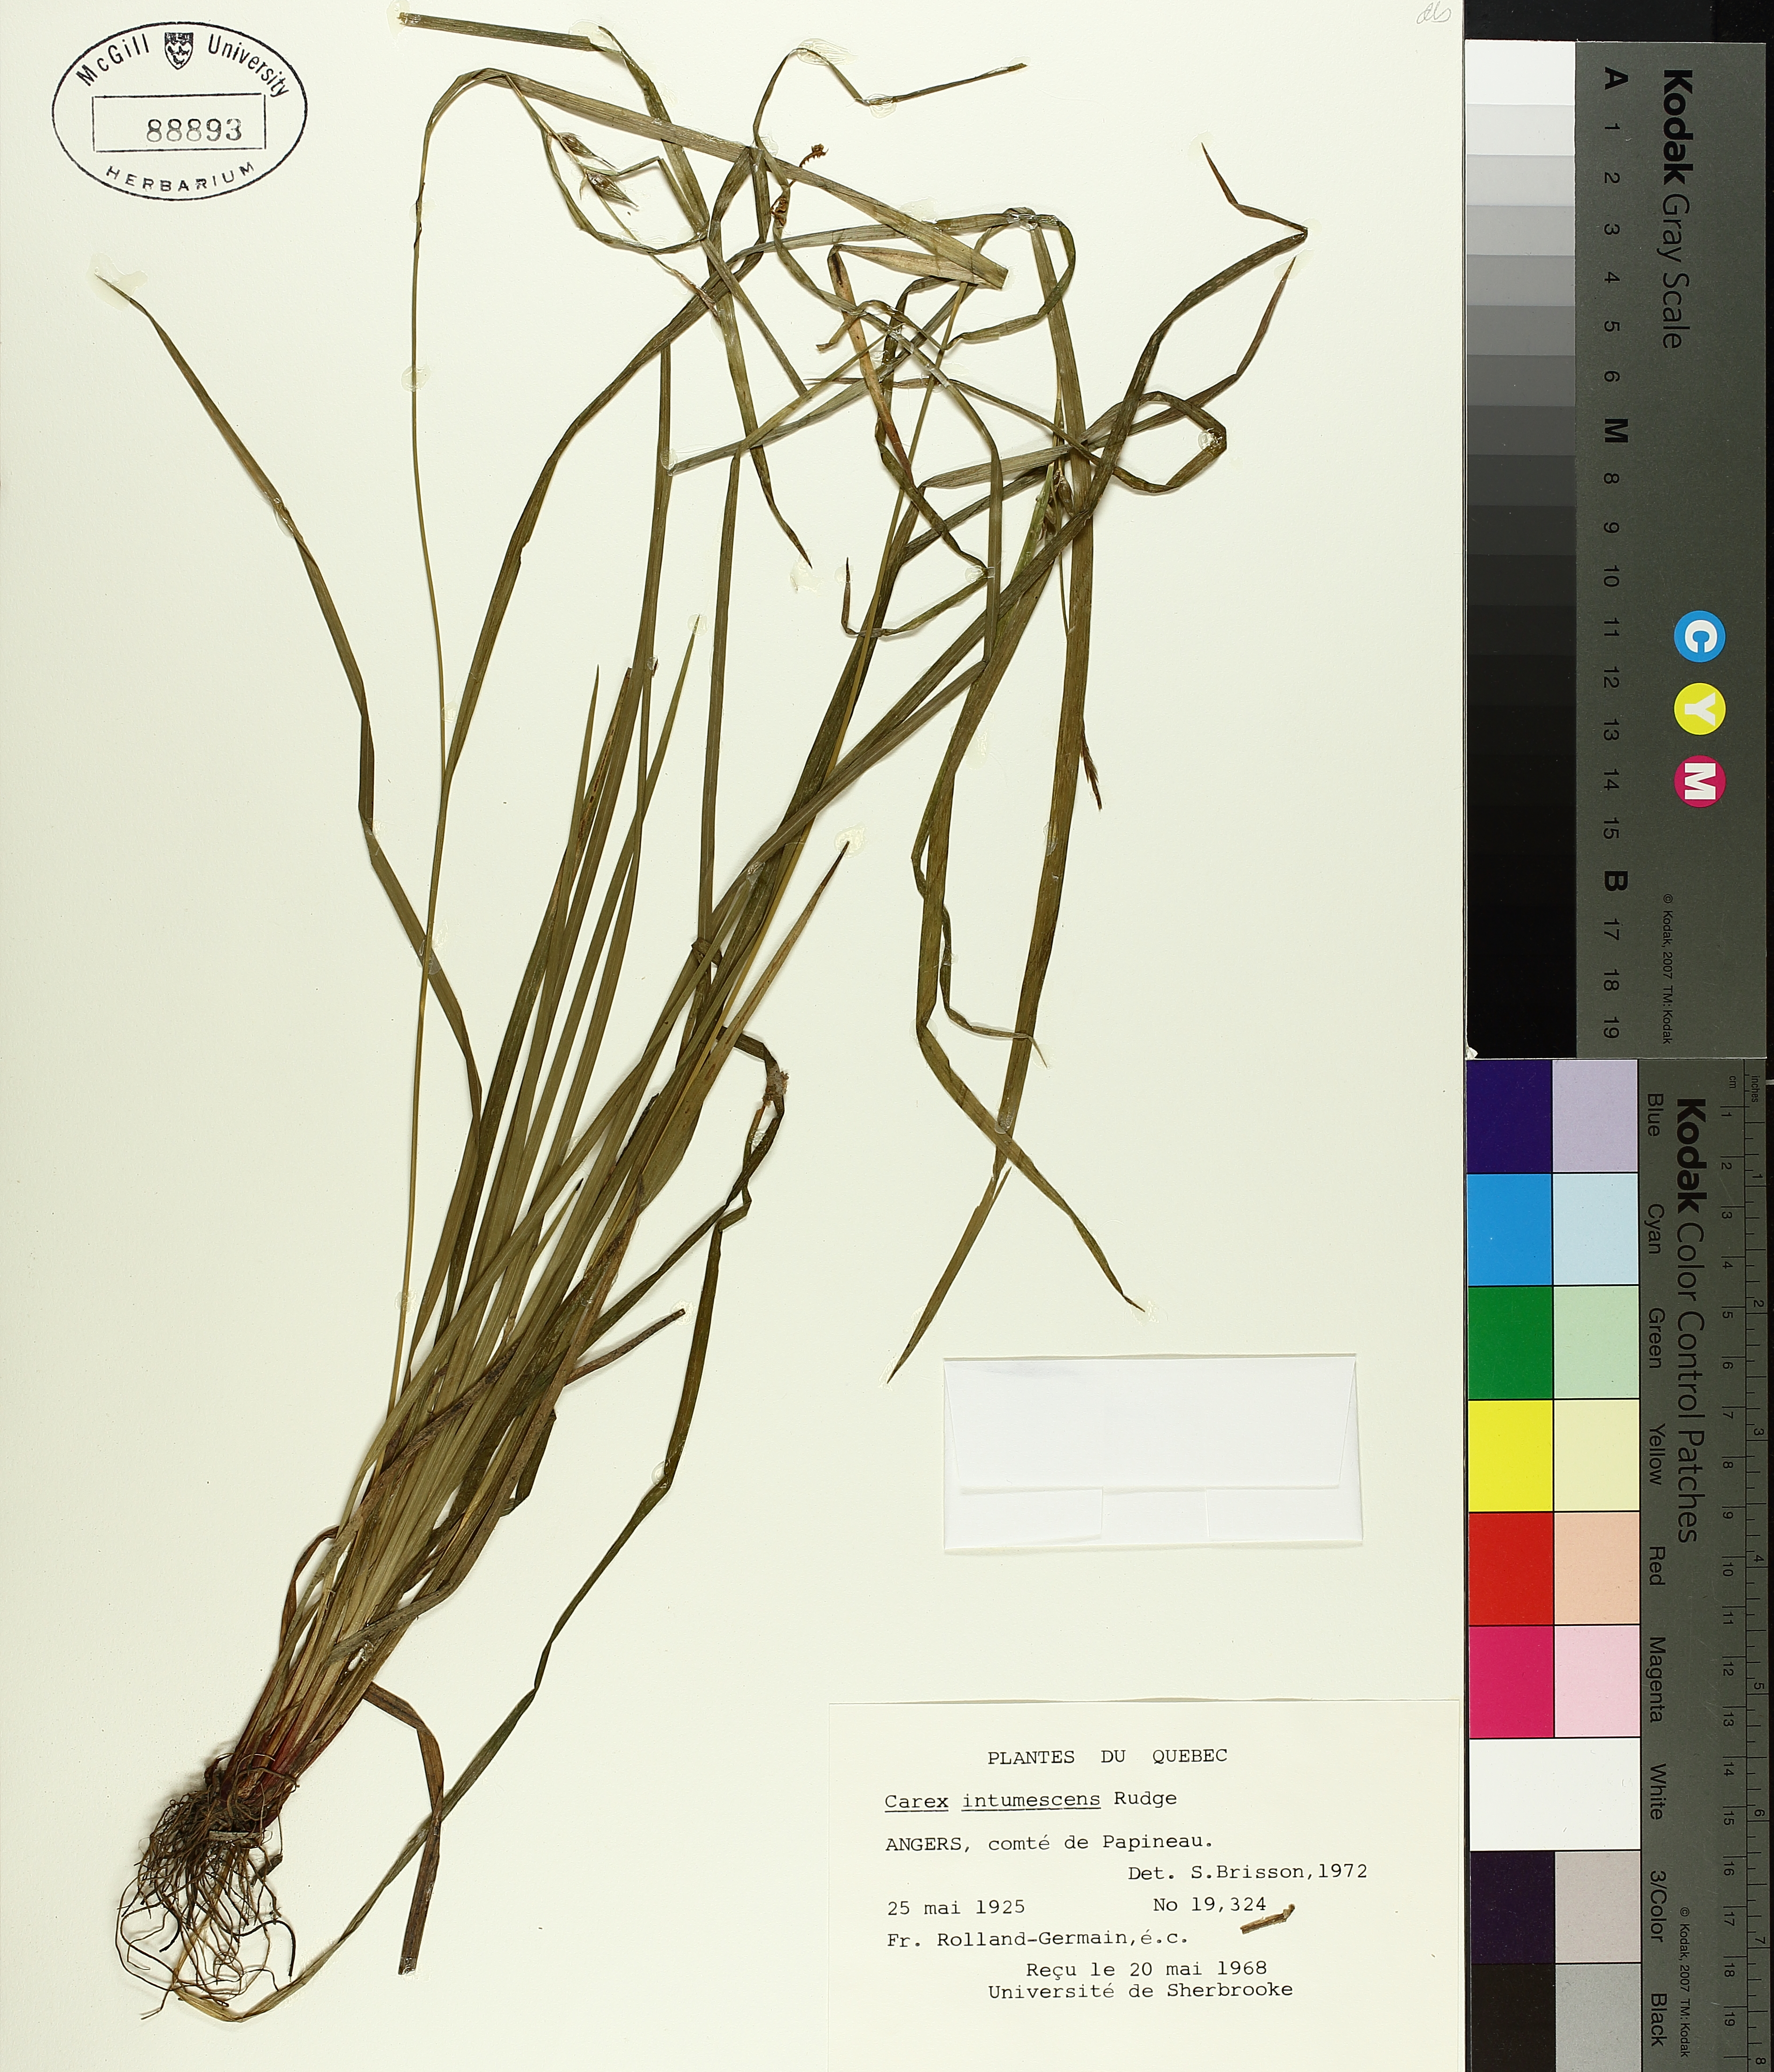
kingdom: Plantae
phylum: Tracheophyta
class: Liliopsida
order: Poales
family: Cyperaceae
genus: Carex
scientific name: Carex intumescens
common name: Greater bladder sedge
